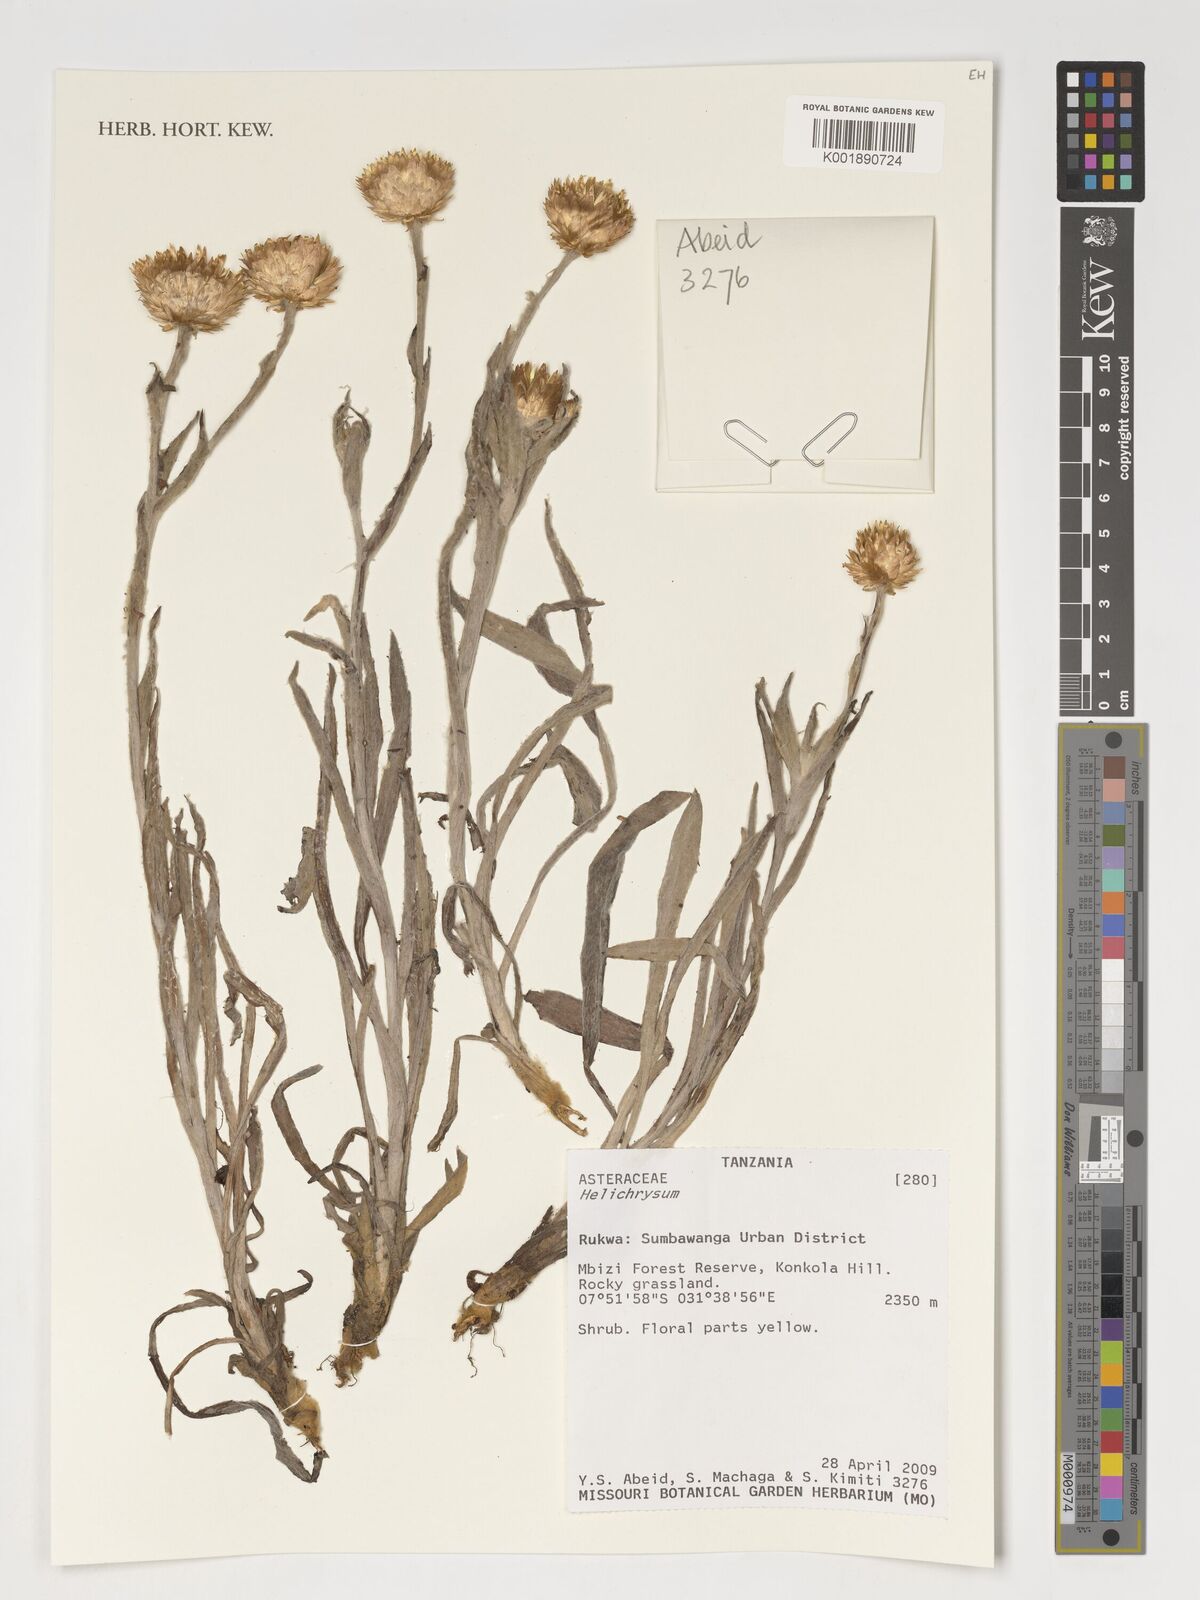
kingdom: Plantae
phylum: Tracheophyta
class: Magnoliopsida
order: Asterales
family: Asteraceae
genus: Helichrysum
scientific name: Helichrysum
